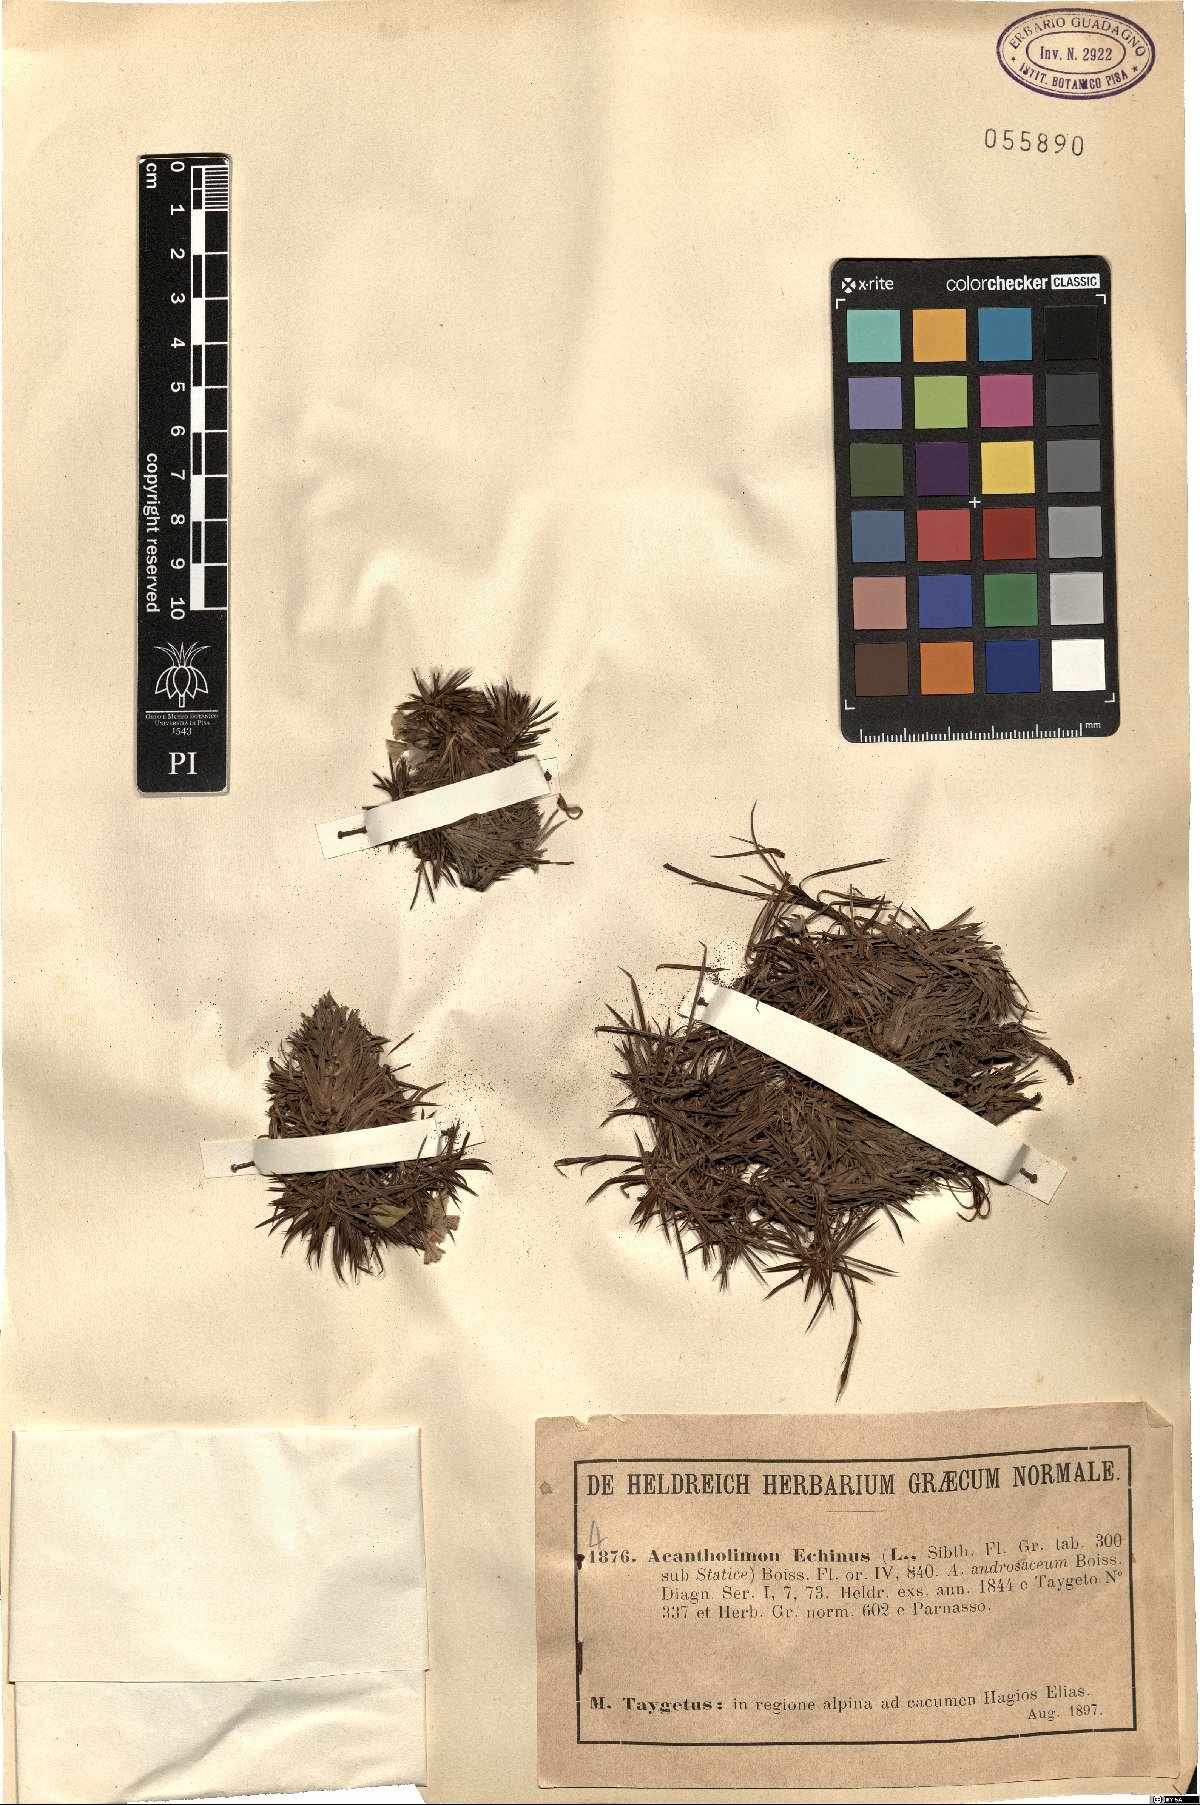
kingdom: Plantae
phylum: Tracheophyta
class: Magnoliopsida
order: Caryophyllales
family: Plumbaginaceae
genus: Acantholimon
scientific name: Acantholimon echinus
